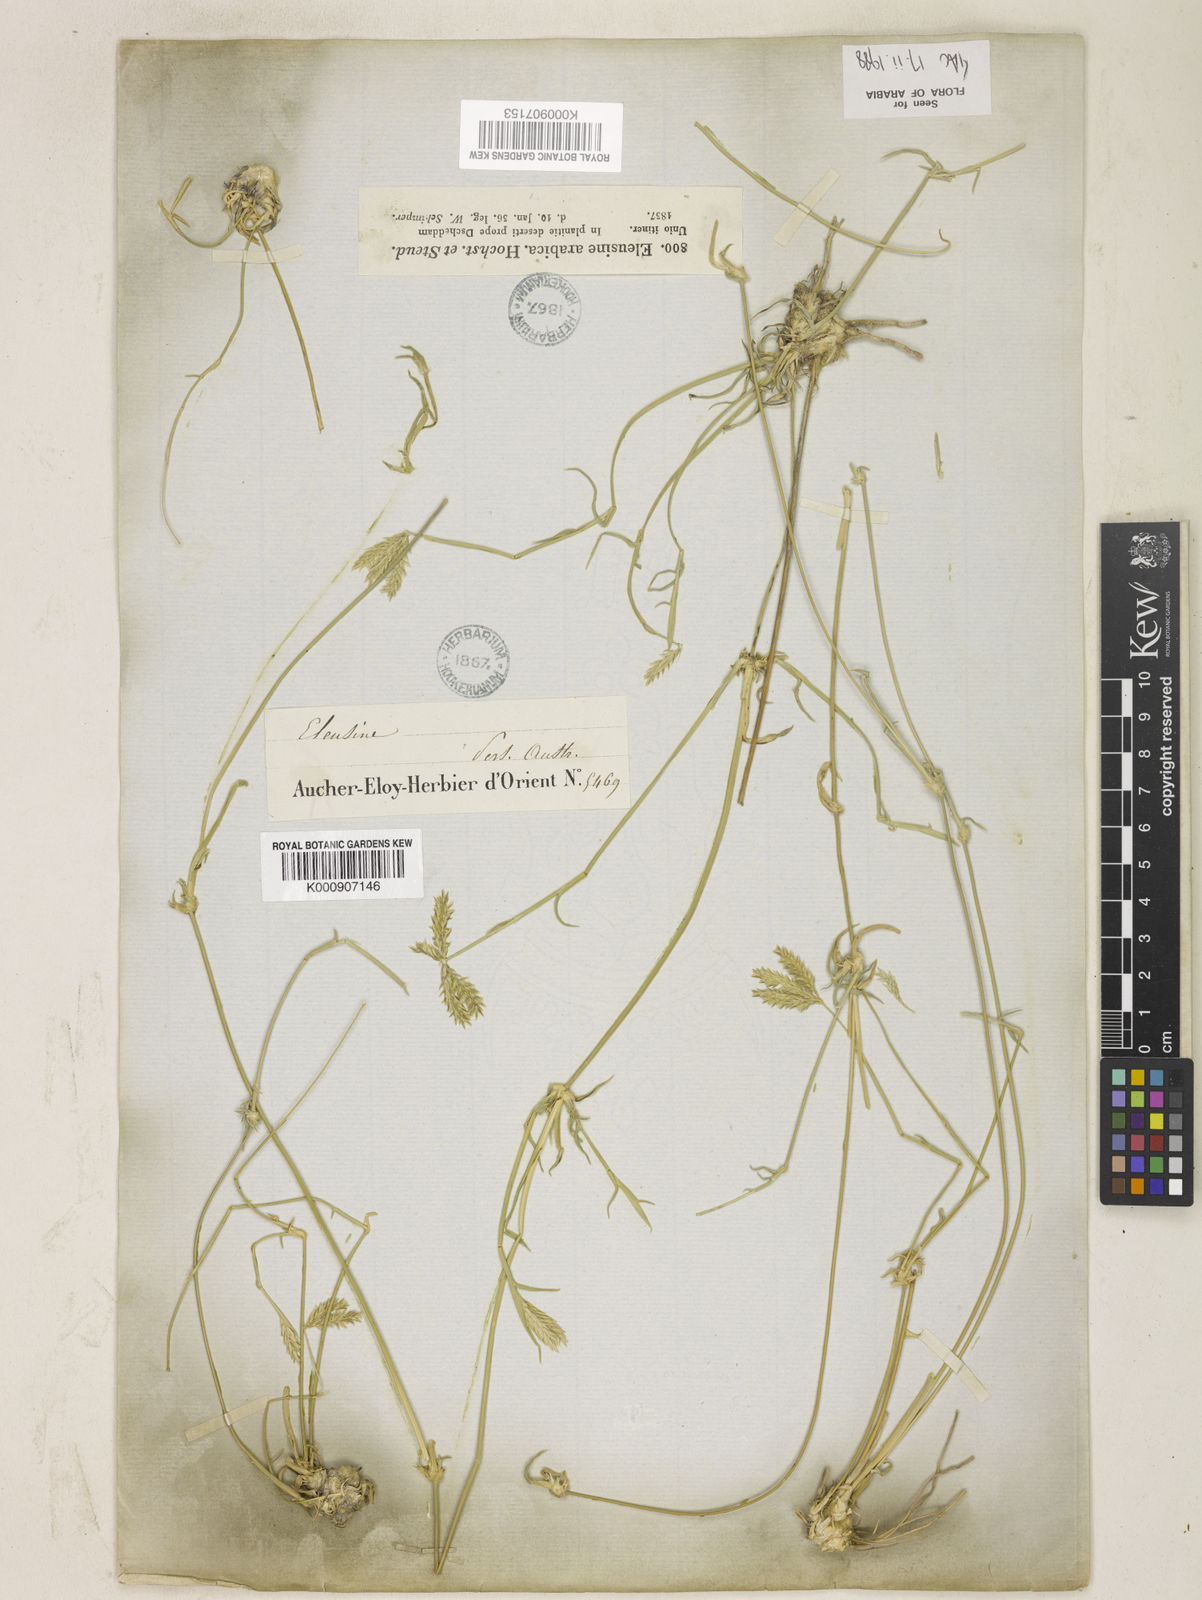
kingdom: Plantae
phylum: Tracheophyta
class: Liliopsida
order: Poales
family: Poaceae
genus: Chloris
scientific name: Chloris flagellifera
